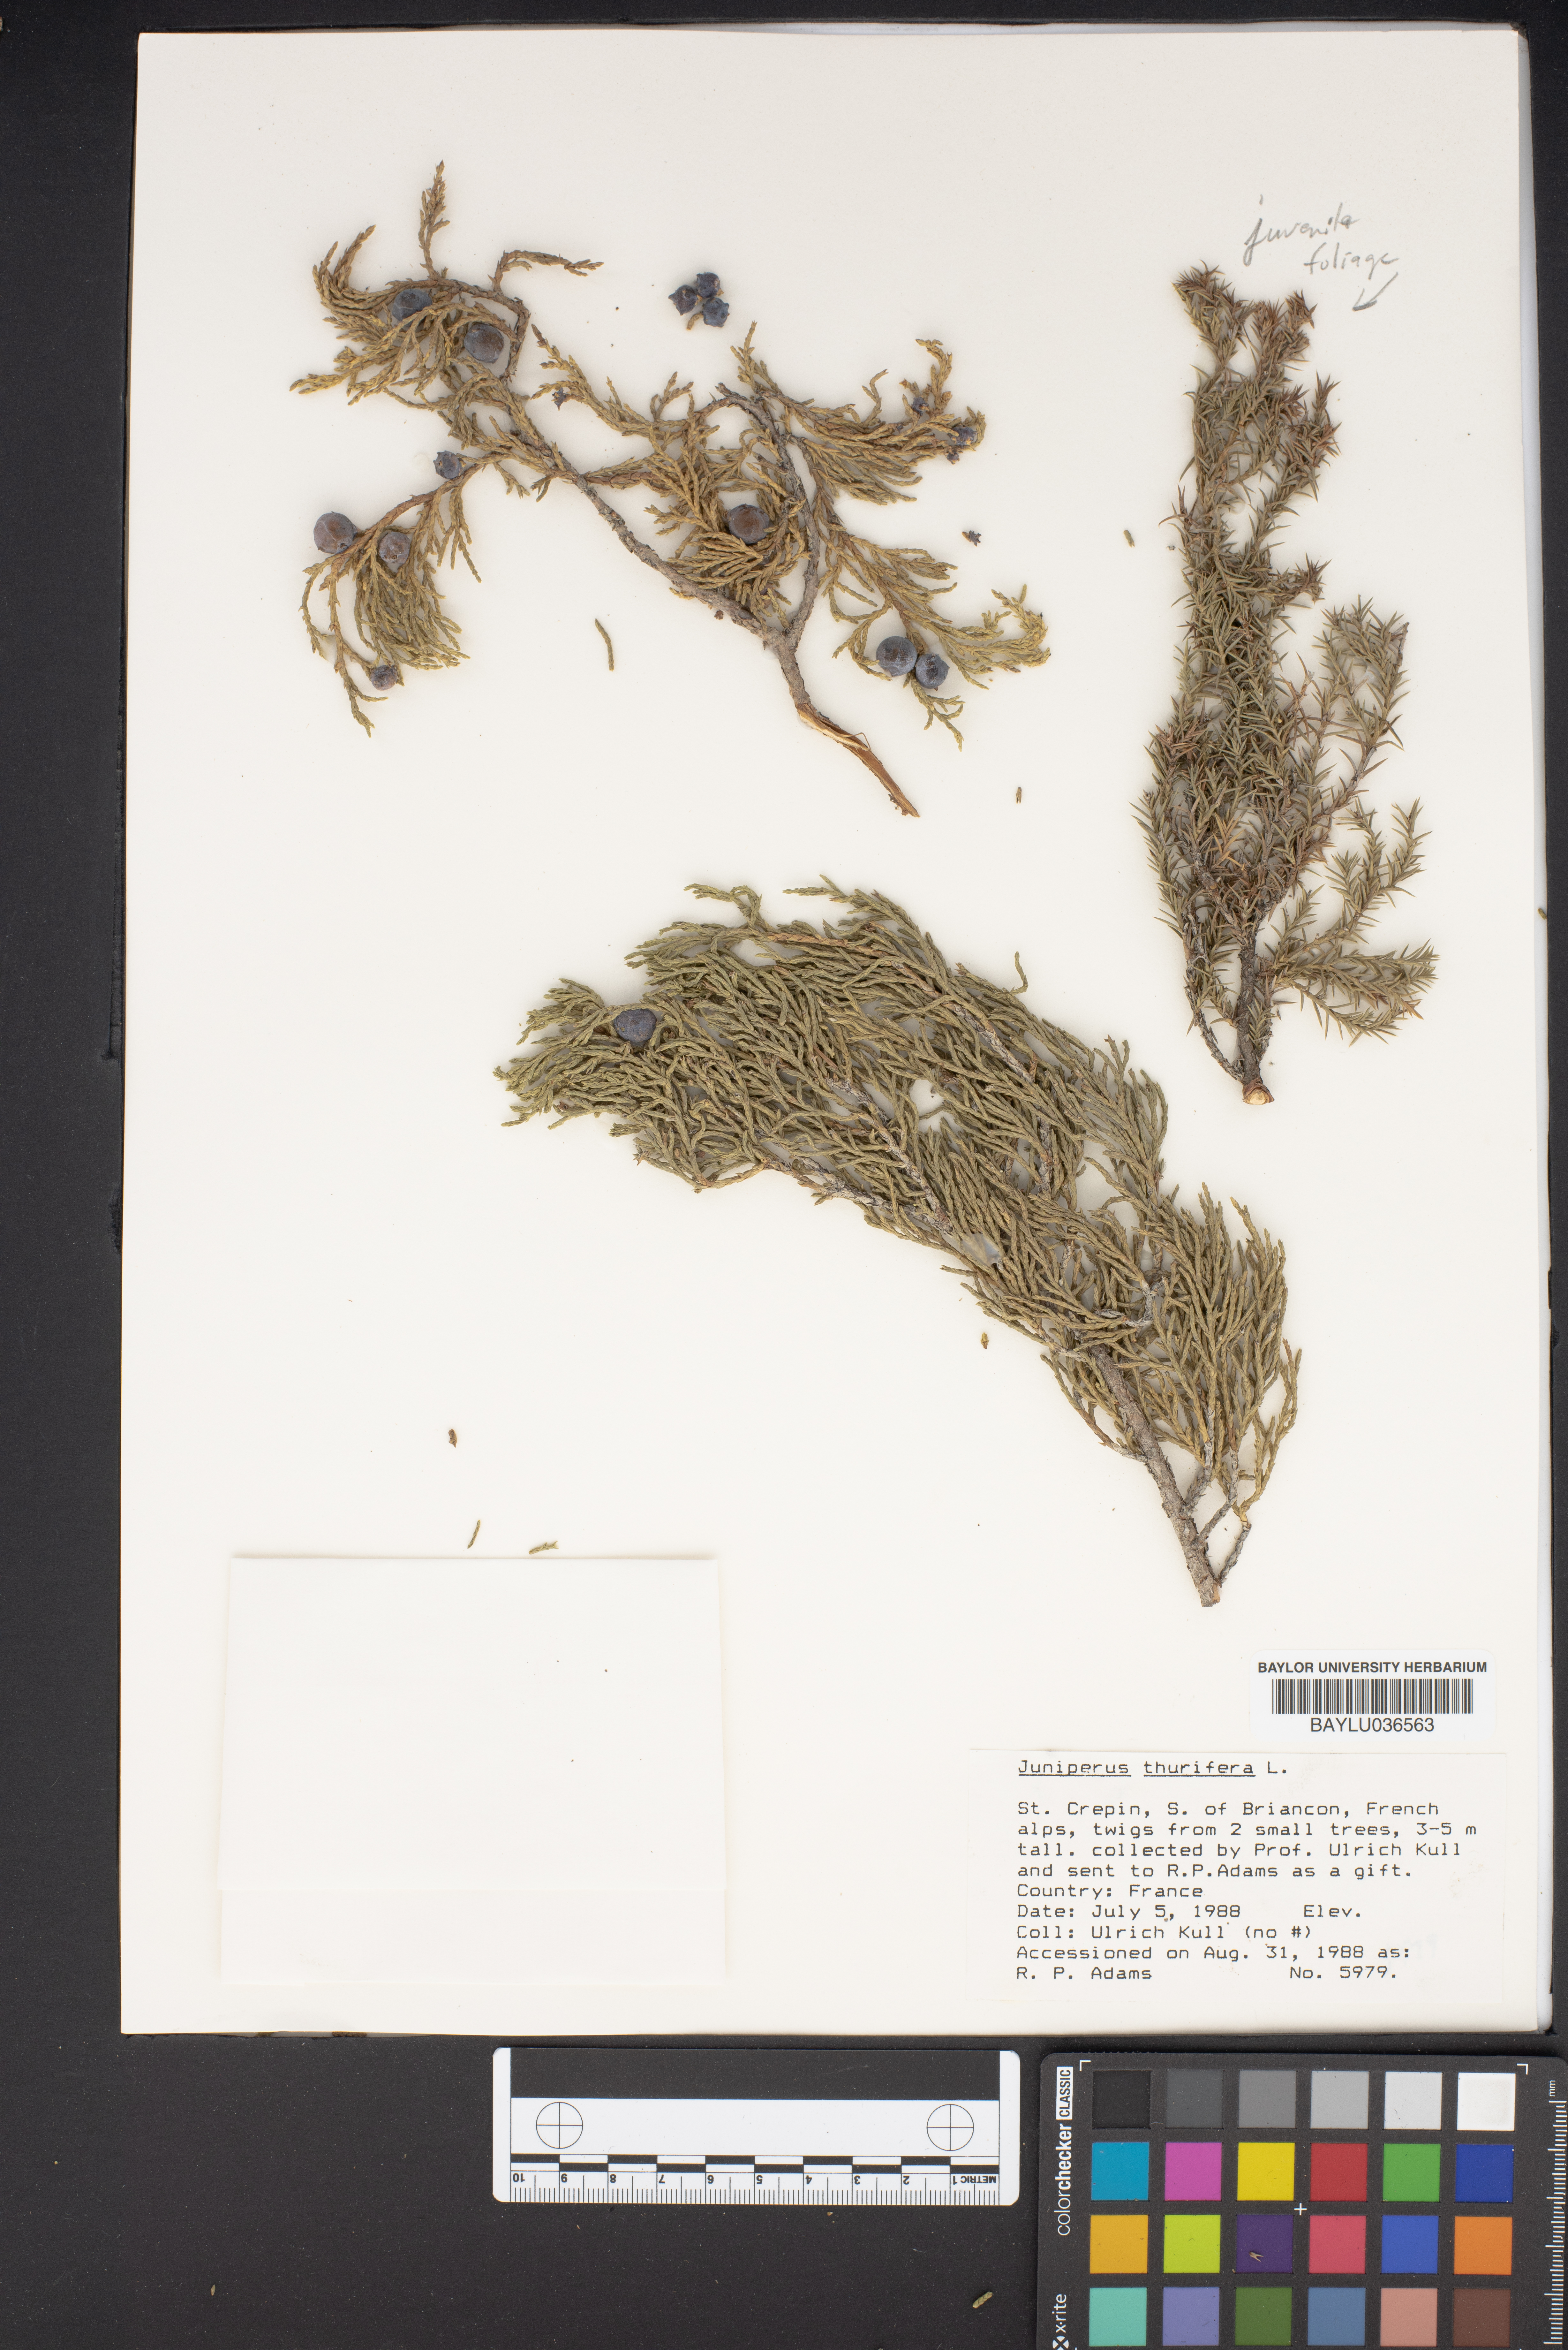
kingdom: Plantae
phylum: Tracheophyta
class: Pinopsida
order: Pinales
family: Cupressaceae
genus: Juniperus
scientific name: Juniperus thurifera
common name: Incense juniper
